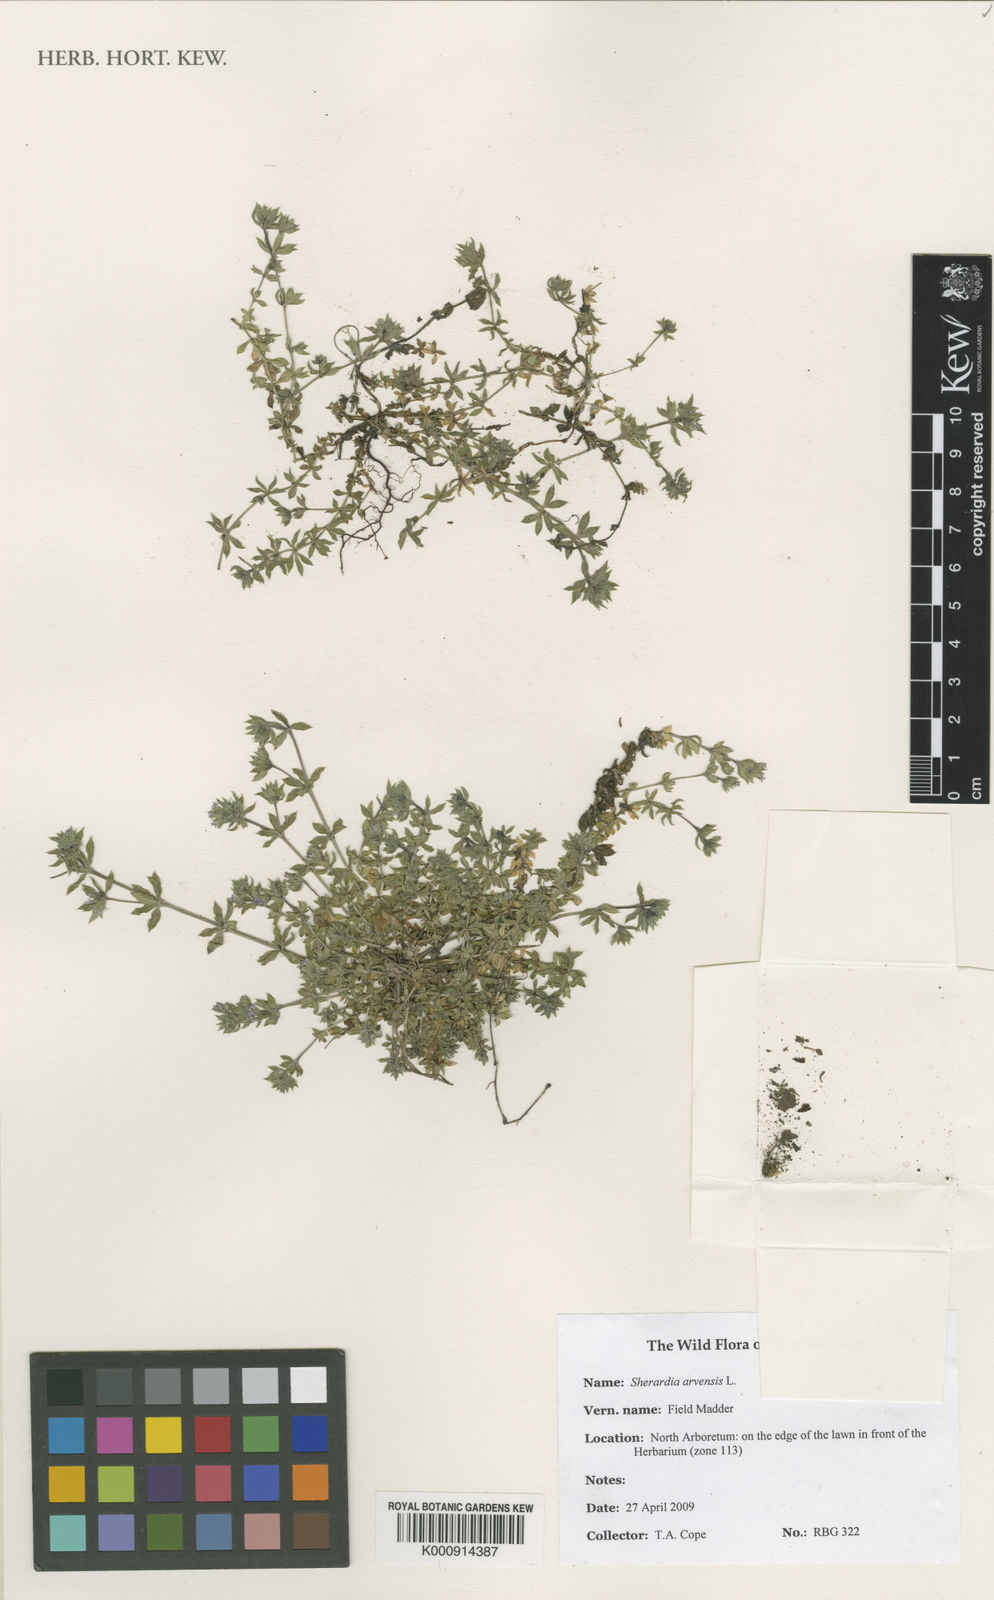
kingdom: Plantae
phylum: Tracheophyta
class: Magnoliopsida
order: Gentianales
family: Rubiaceae
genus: Sherardia
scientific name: Sherardia arvensis
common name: Field madder
